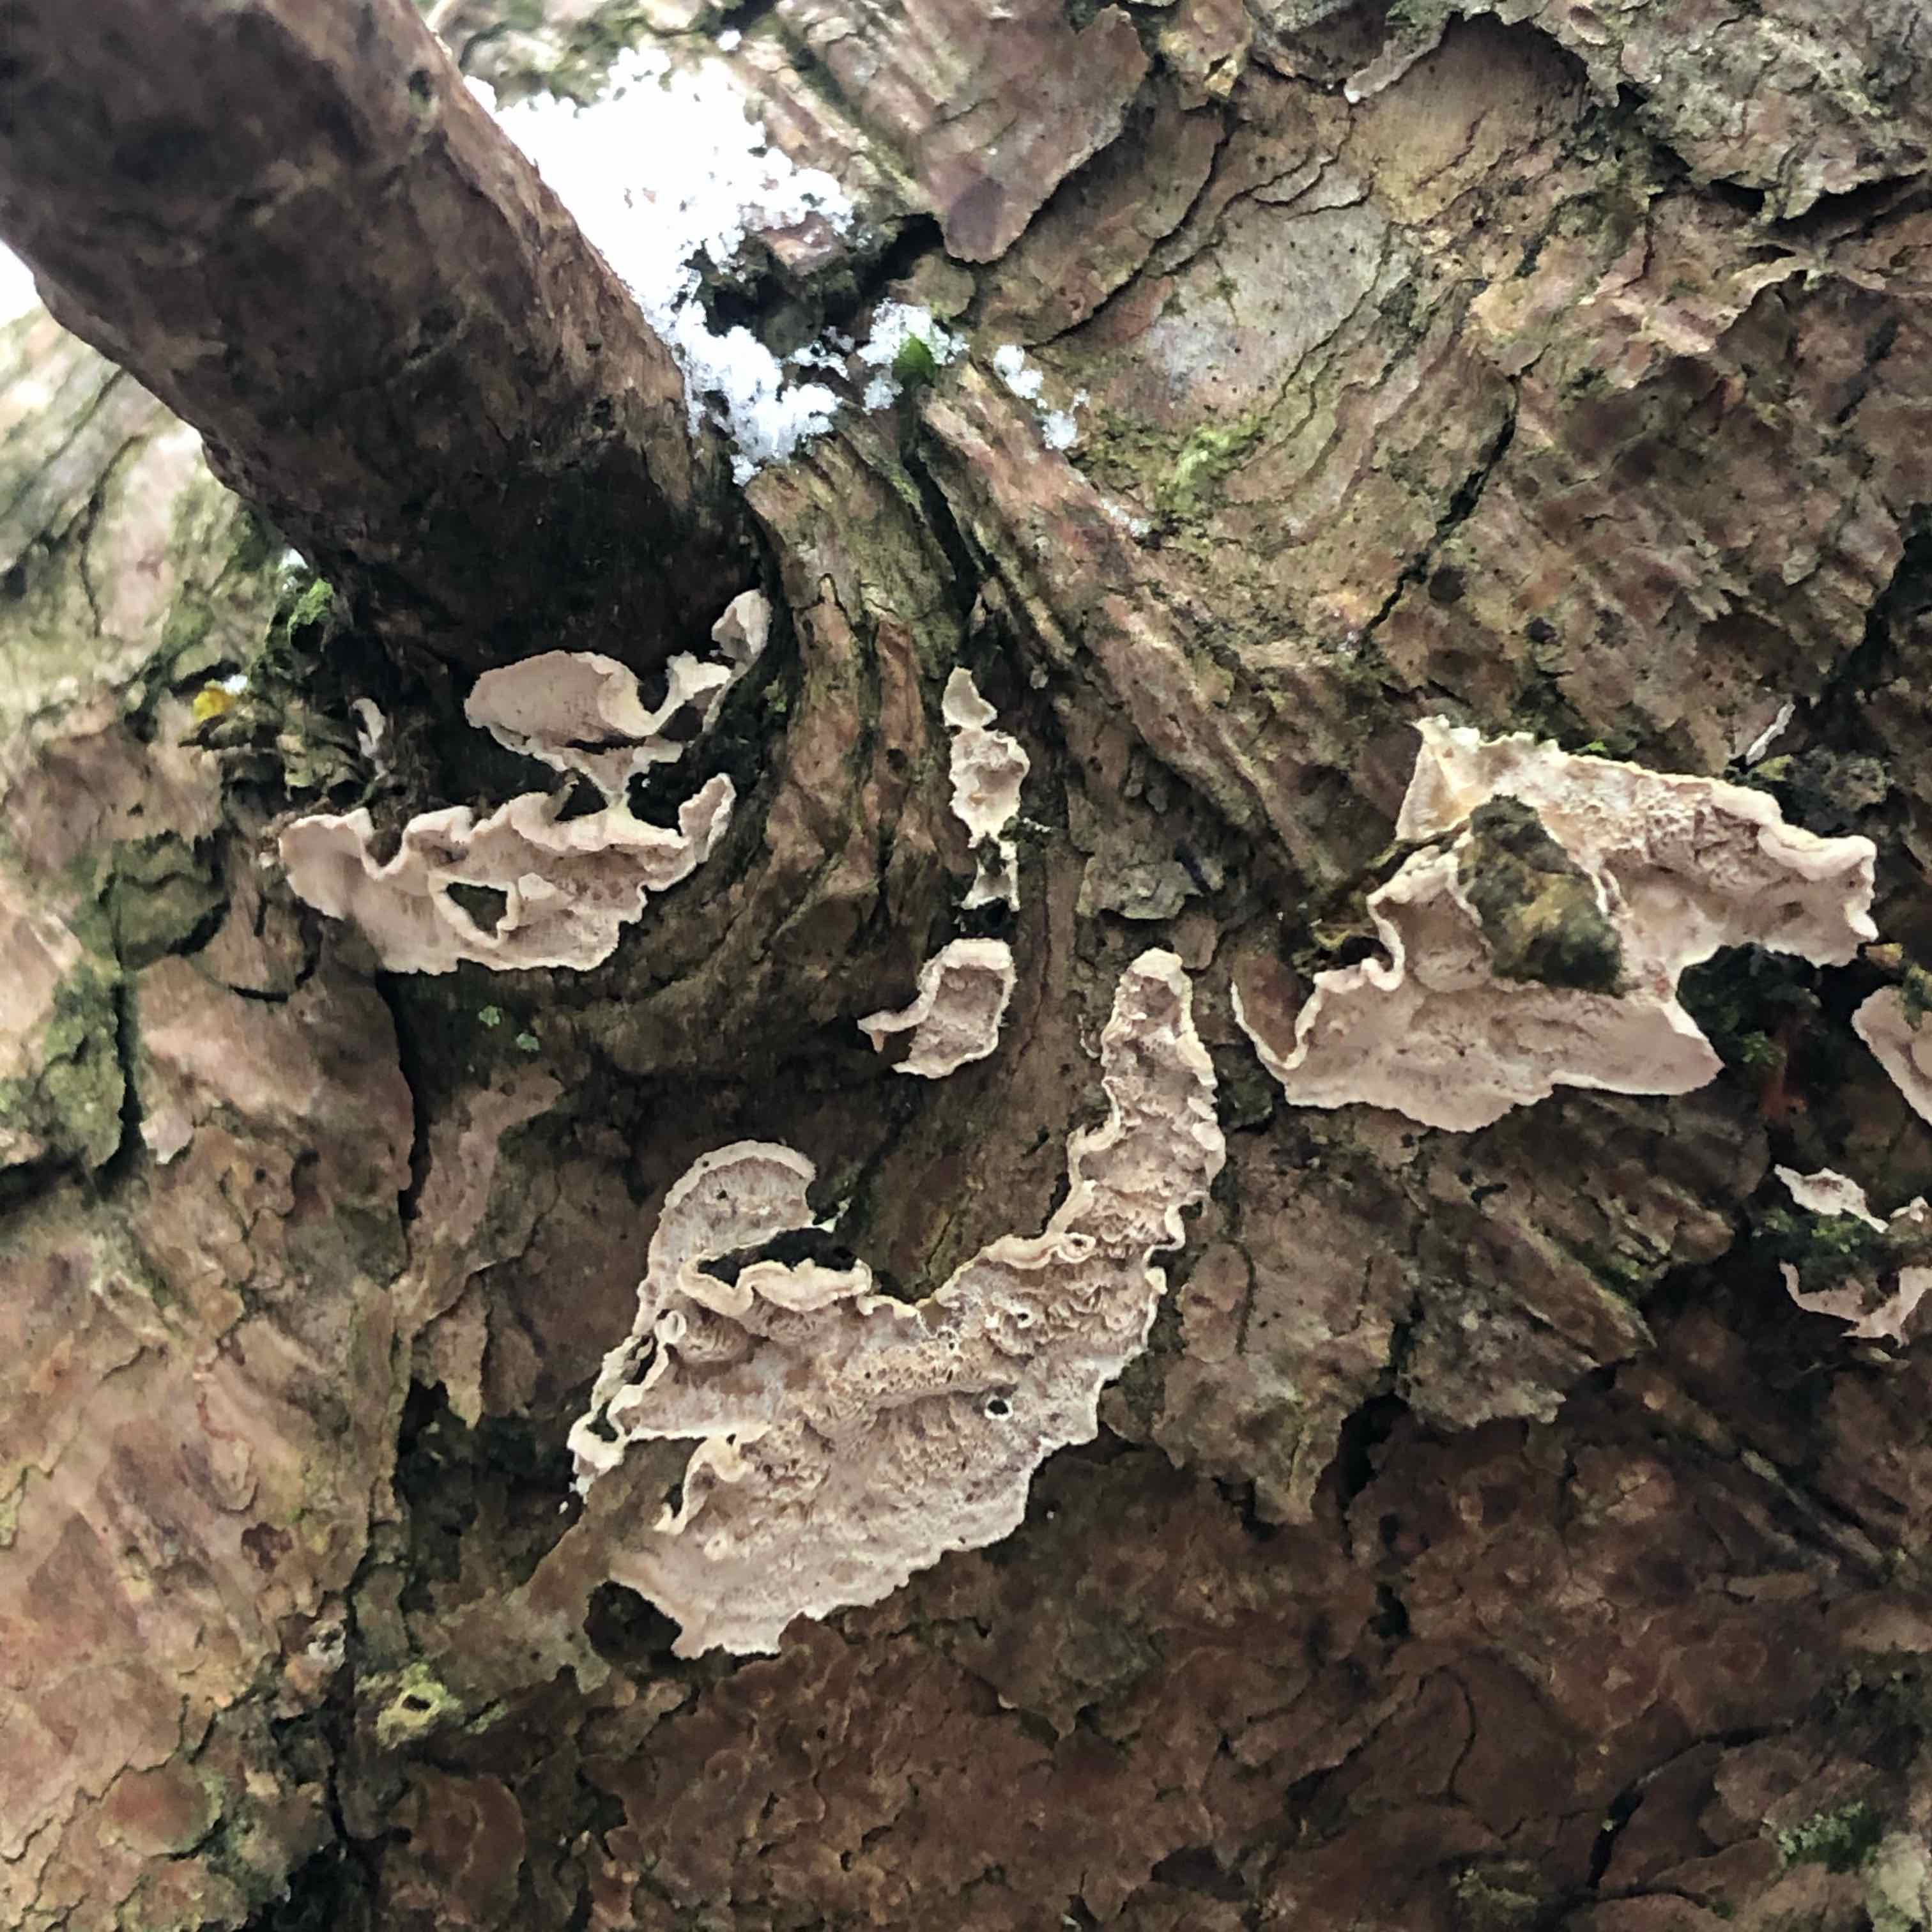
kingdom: Fungi
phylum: Basidiomycota
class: Agaricomycetes
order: Polyporales
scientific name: Polyporales
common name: poresvampordenen
